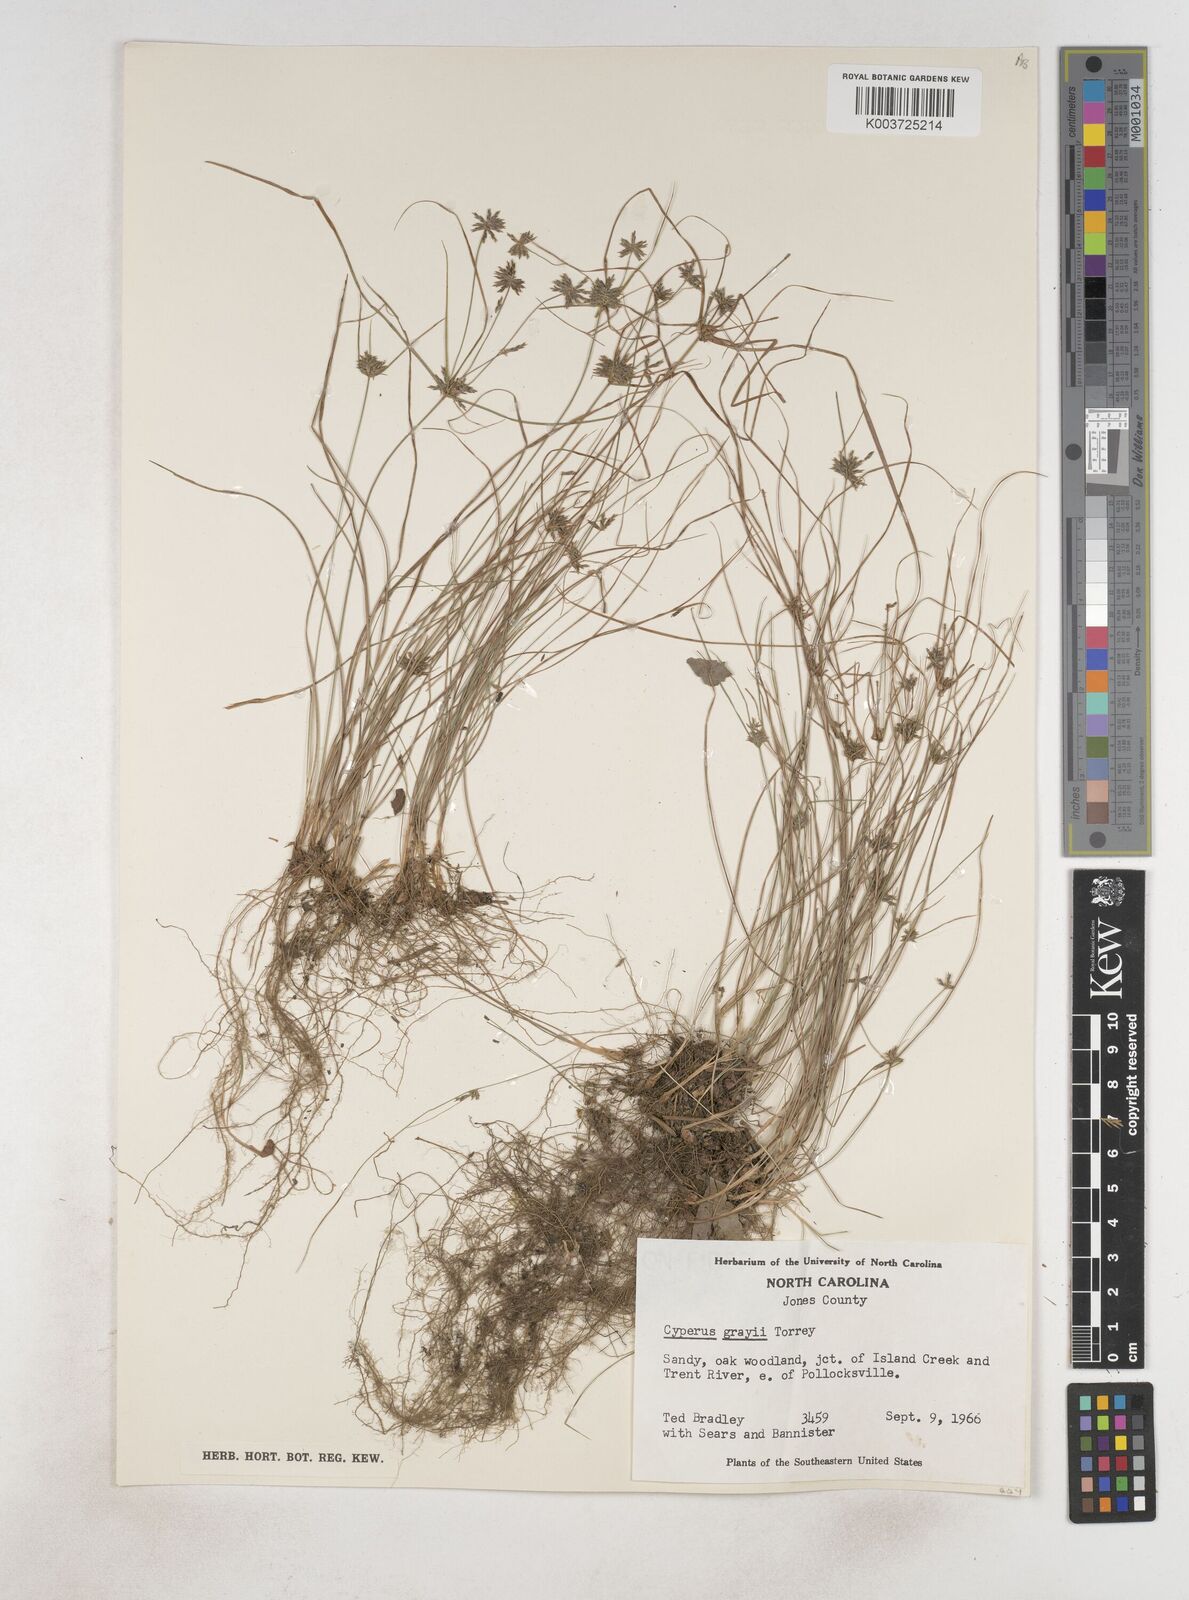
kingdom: Plantae
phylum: Tracheophyta
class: Liliopsida
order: Poales
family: Cyperaceae
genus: Cyperus
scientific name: Cyperus grayi
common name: Gray's flat sedge
